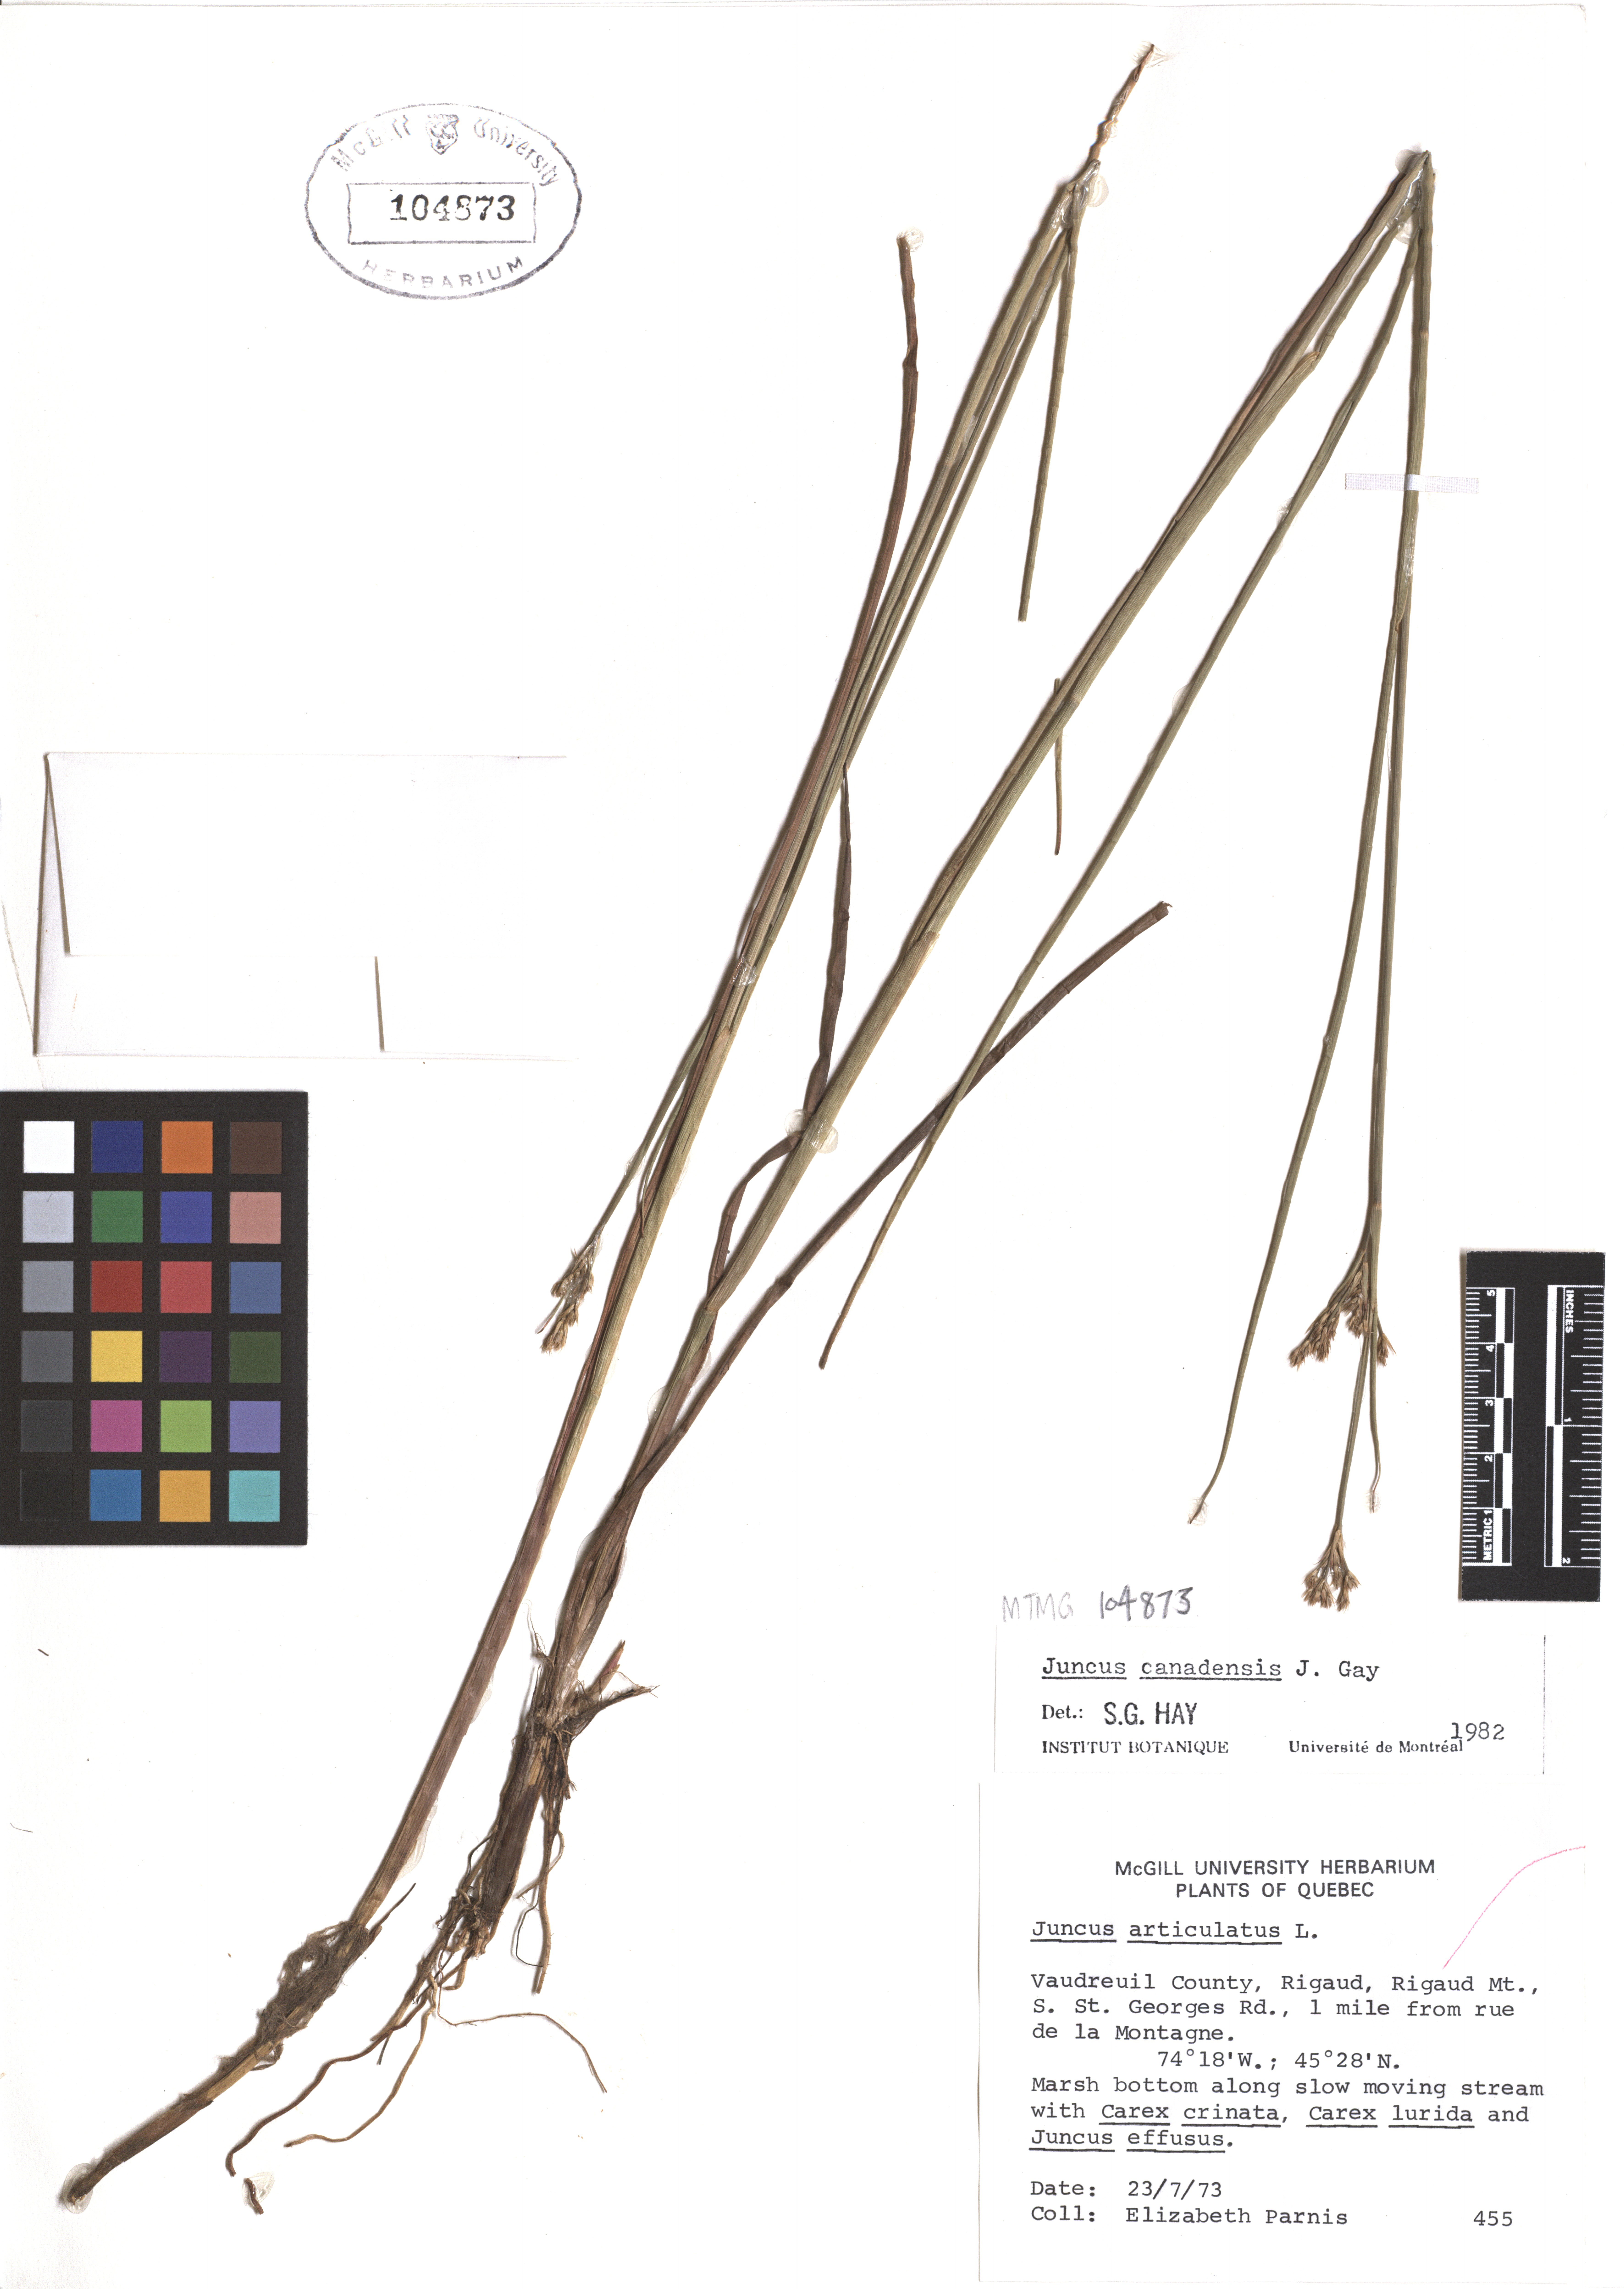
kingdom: Plantae
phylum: Tracheophyta
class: Liliopsida
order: Poales
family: Juncaceae
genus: Juncus
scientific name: Juncus canadensis
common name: Canada rush
